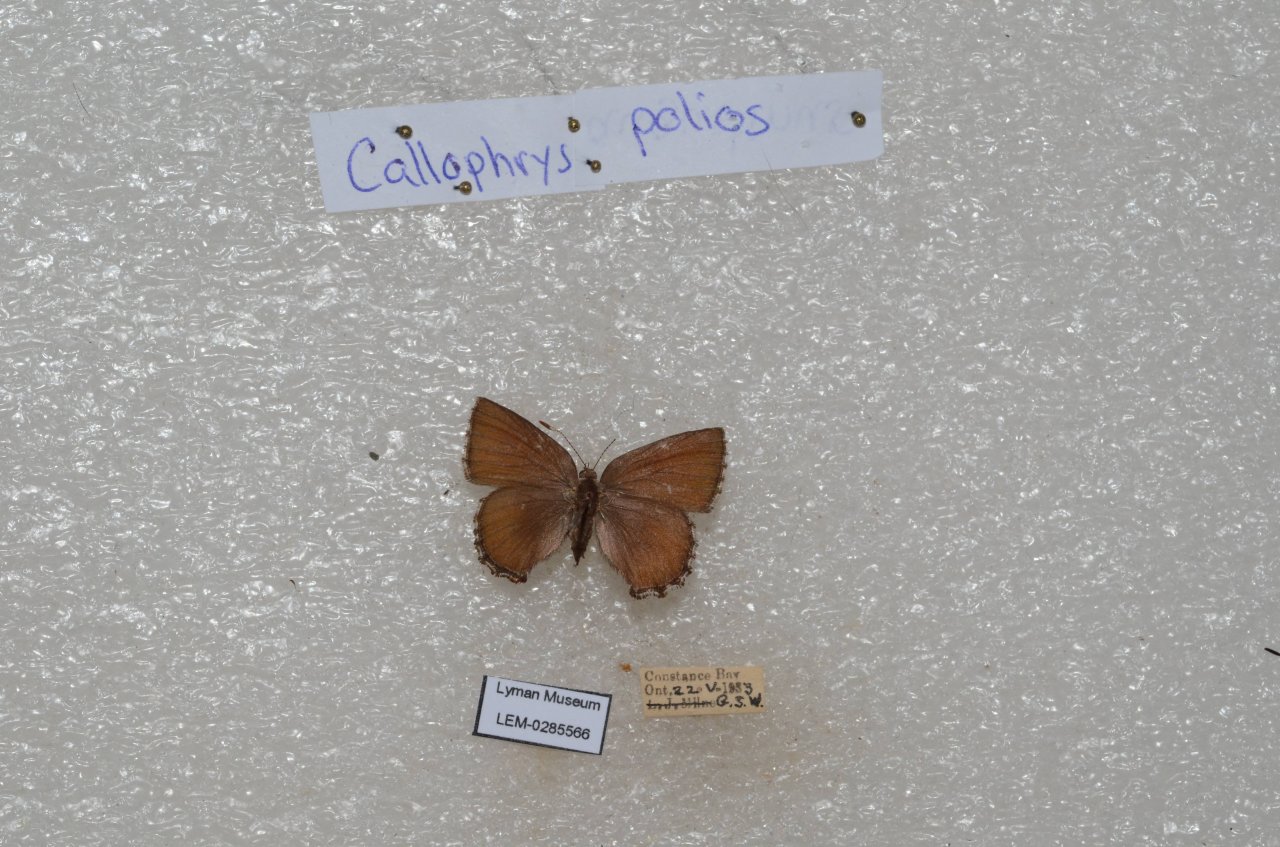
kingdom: Animalia
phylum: Arthropoda
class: Insecta
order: Lepidoptera
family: Lycaenidae
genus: Callophrys
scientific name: Callophrys polios
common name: Hoary Elfin
